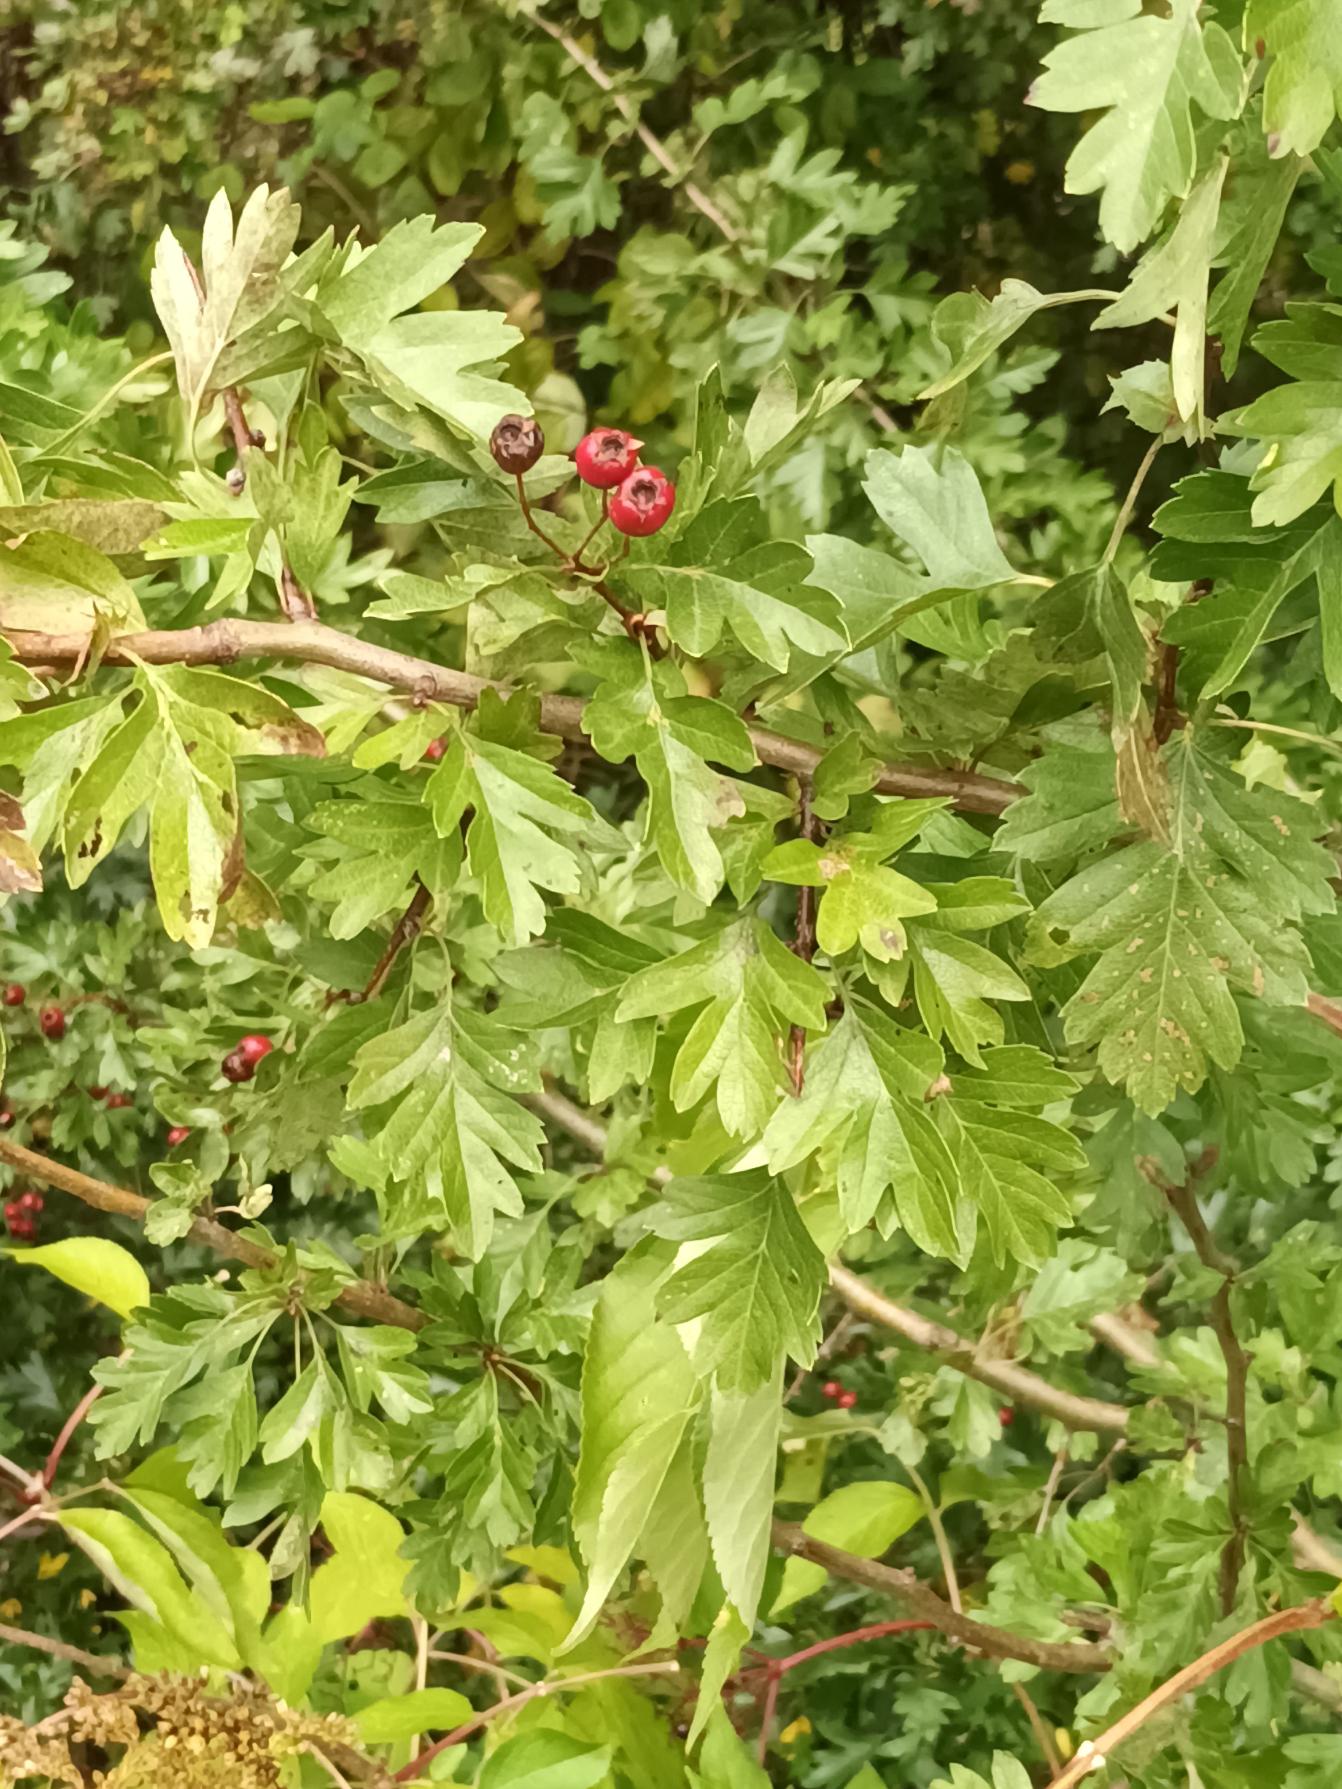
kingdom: Plantae
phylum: Tracheophyta
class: Magnoliopsida
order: Rosales
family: Rosaceae
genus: Crataegus
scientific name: Crataegus monogyna
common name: Engriflet hvidtjørn
